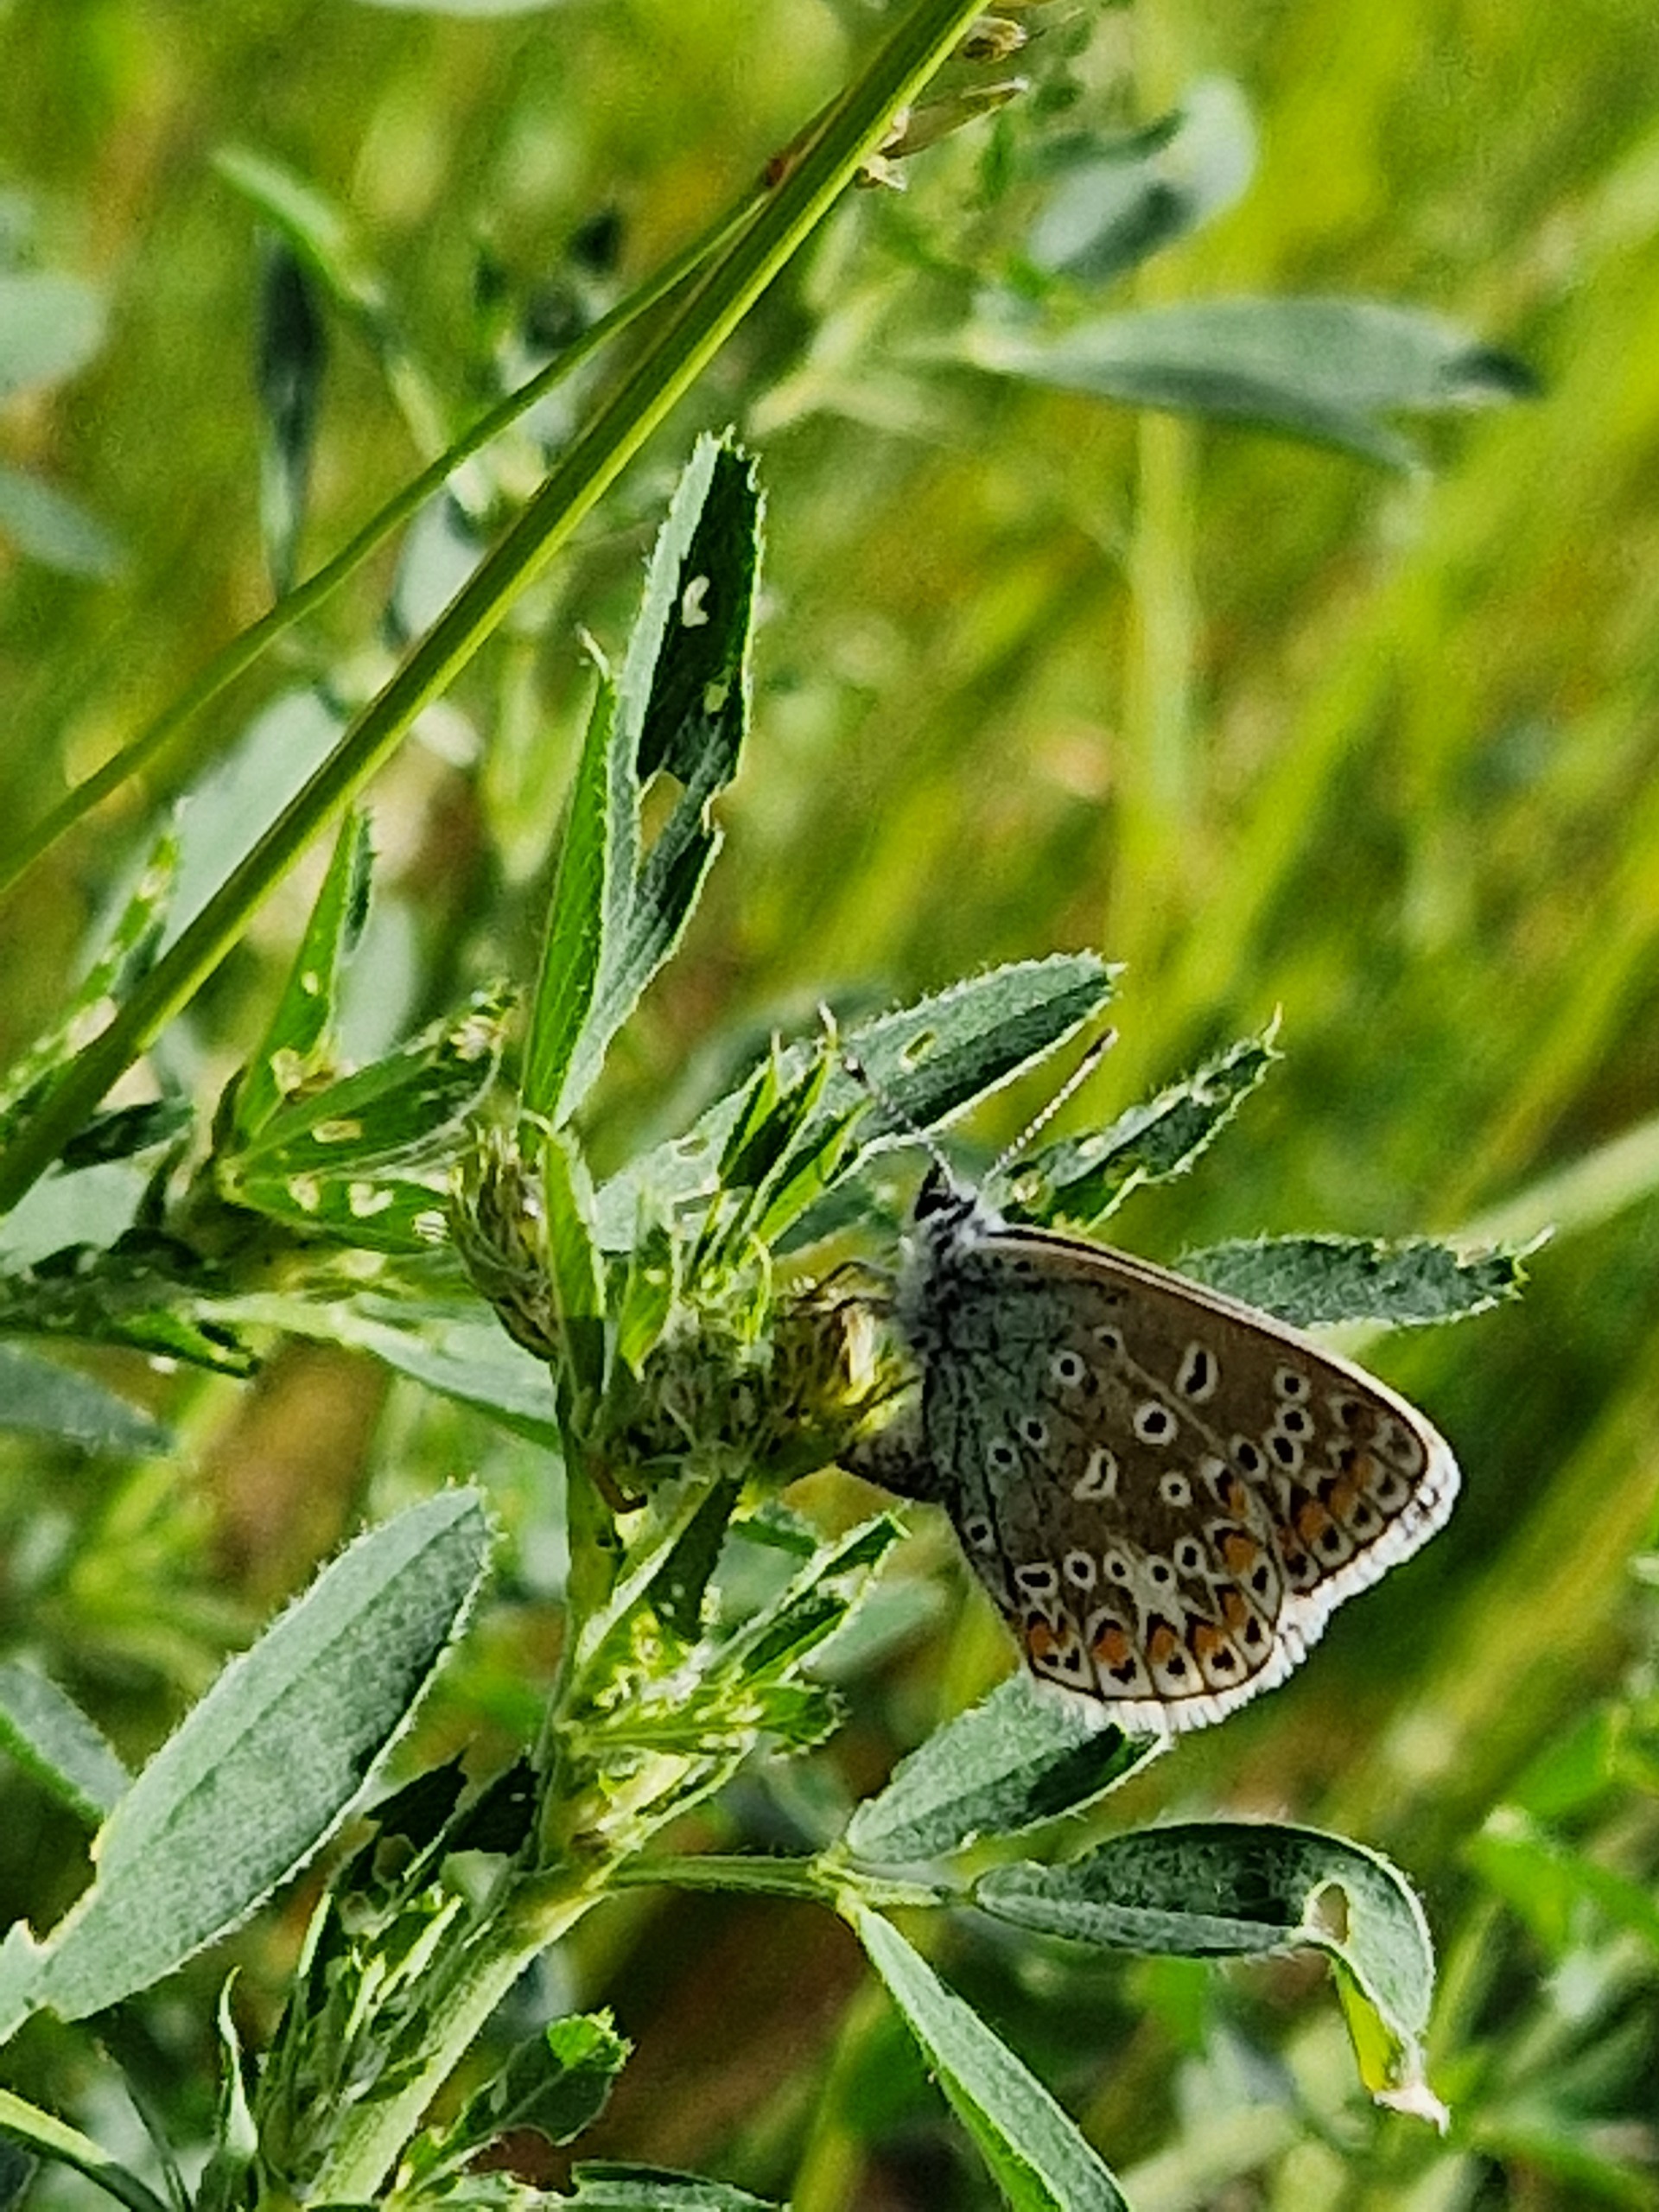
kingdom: Animalia
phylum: Arthropoda
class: Insecta
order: Lepidoptera
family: Lycaenidae
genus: Polyommatus
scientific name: Polyommatus icarus
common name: Almindelig blåfugl
